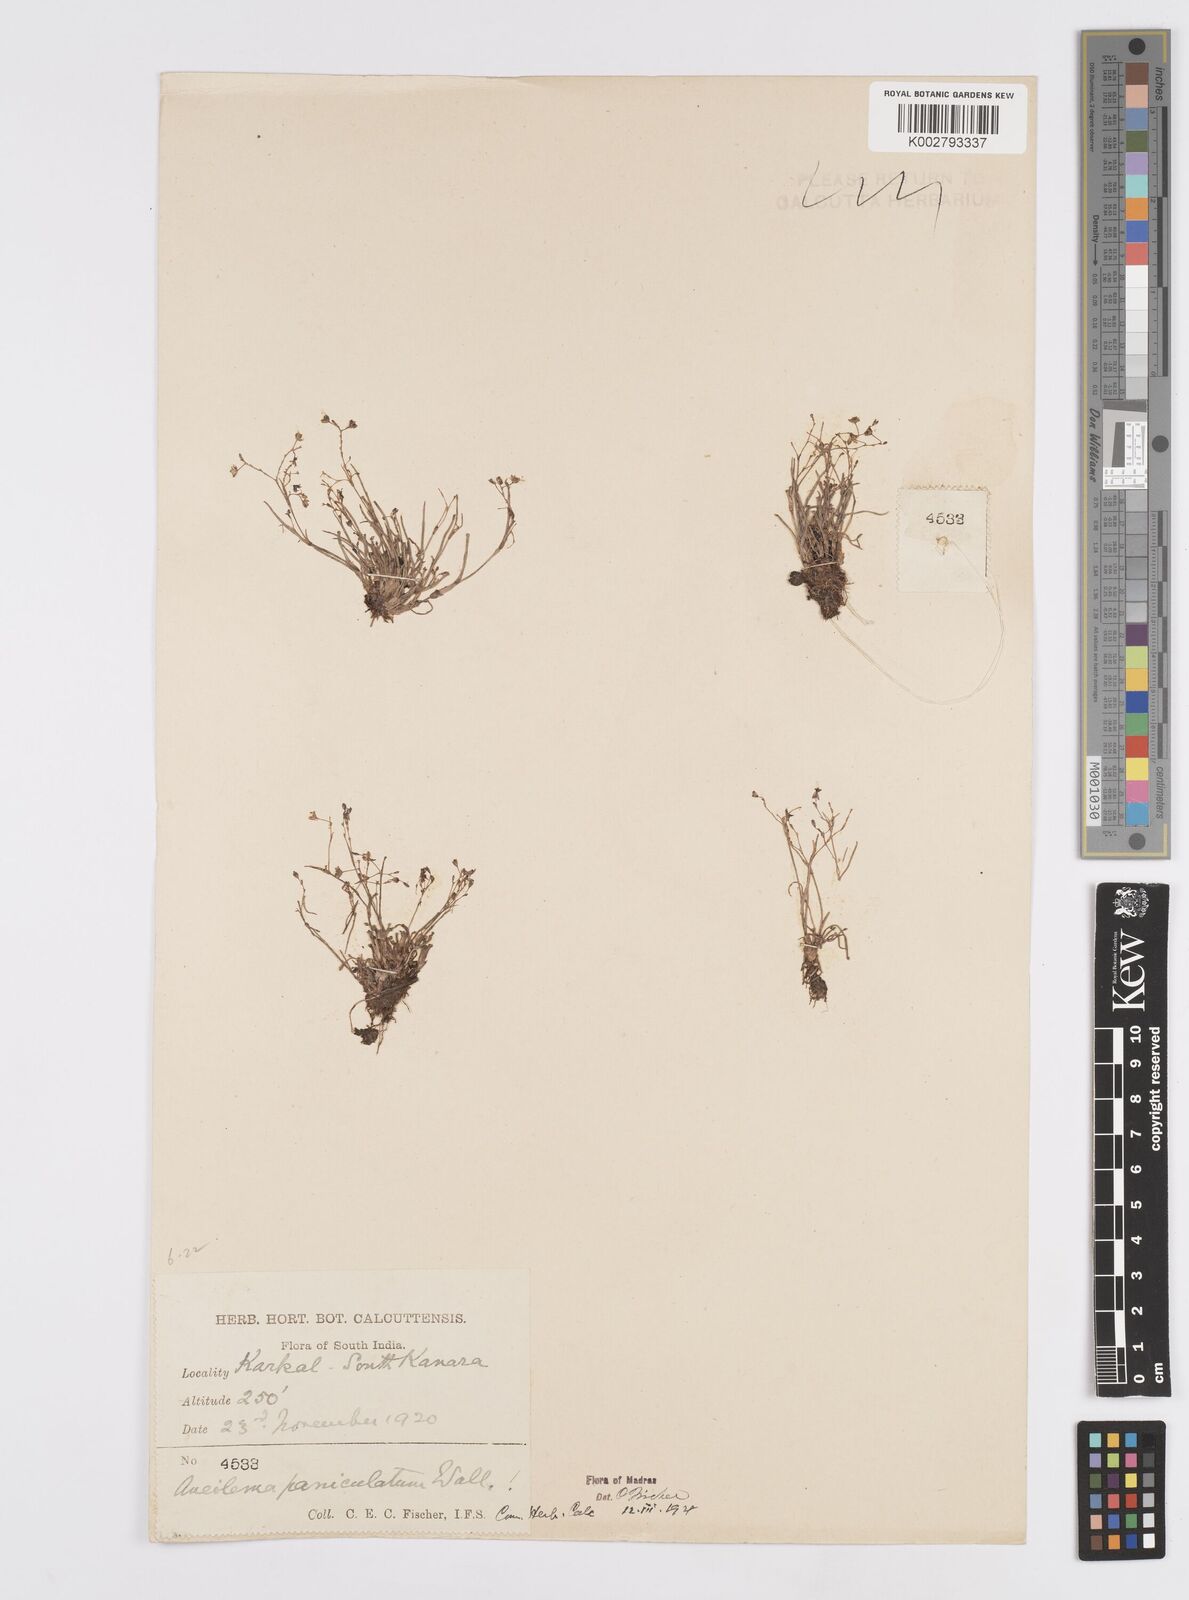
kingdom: Plantae
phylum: Tracheophyta
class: Liliopsida
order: Commelinales
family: Commelinaceae
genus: Murdannia
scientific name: Murdannia semiteres
